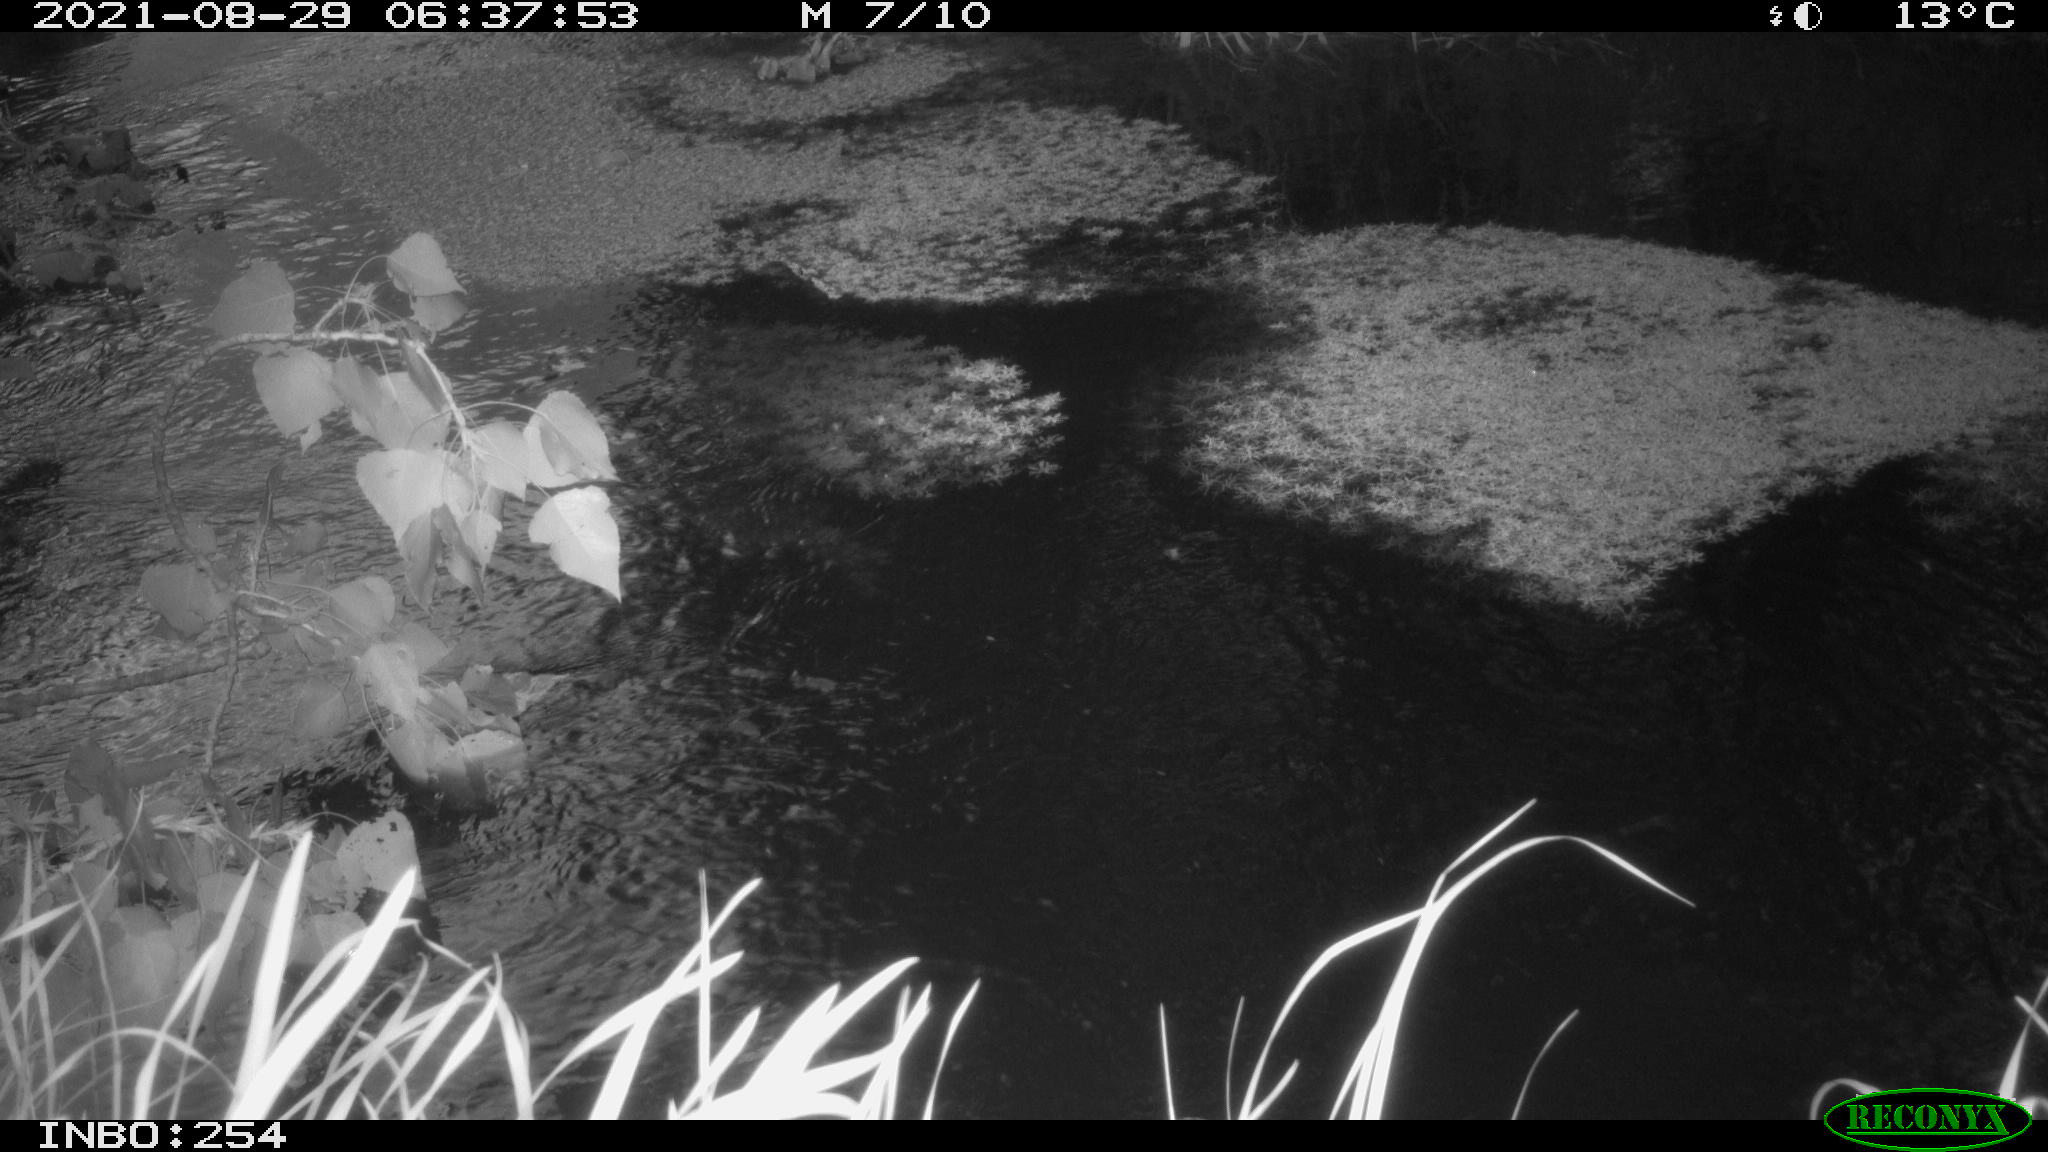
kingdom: Animalia
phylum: Chordata
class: Aves
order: Anseriformes
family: Anatidae
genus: Anas
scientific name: Anas platyrhynchos
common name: Mallard
